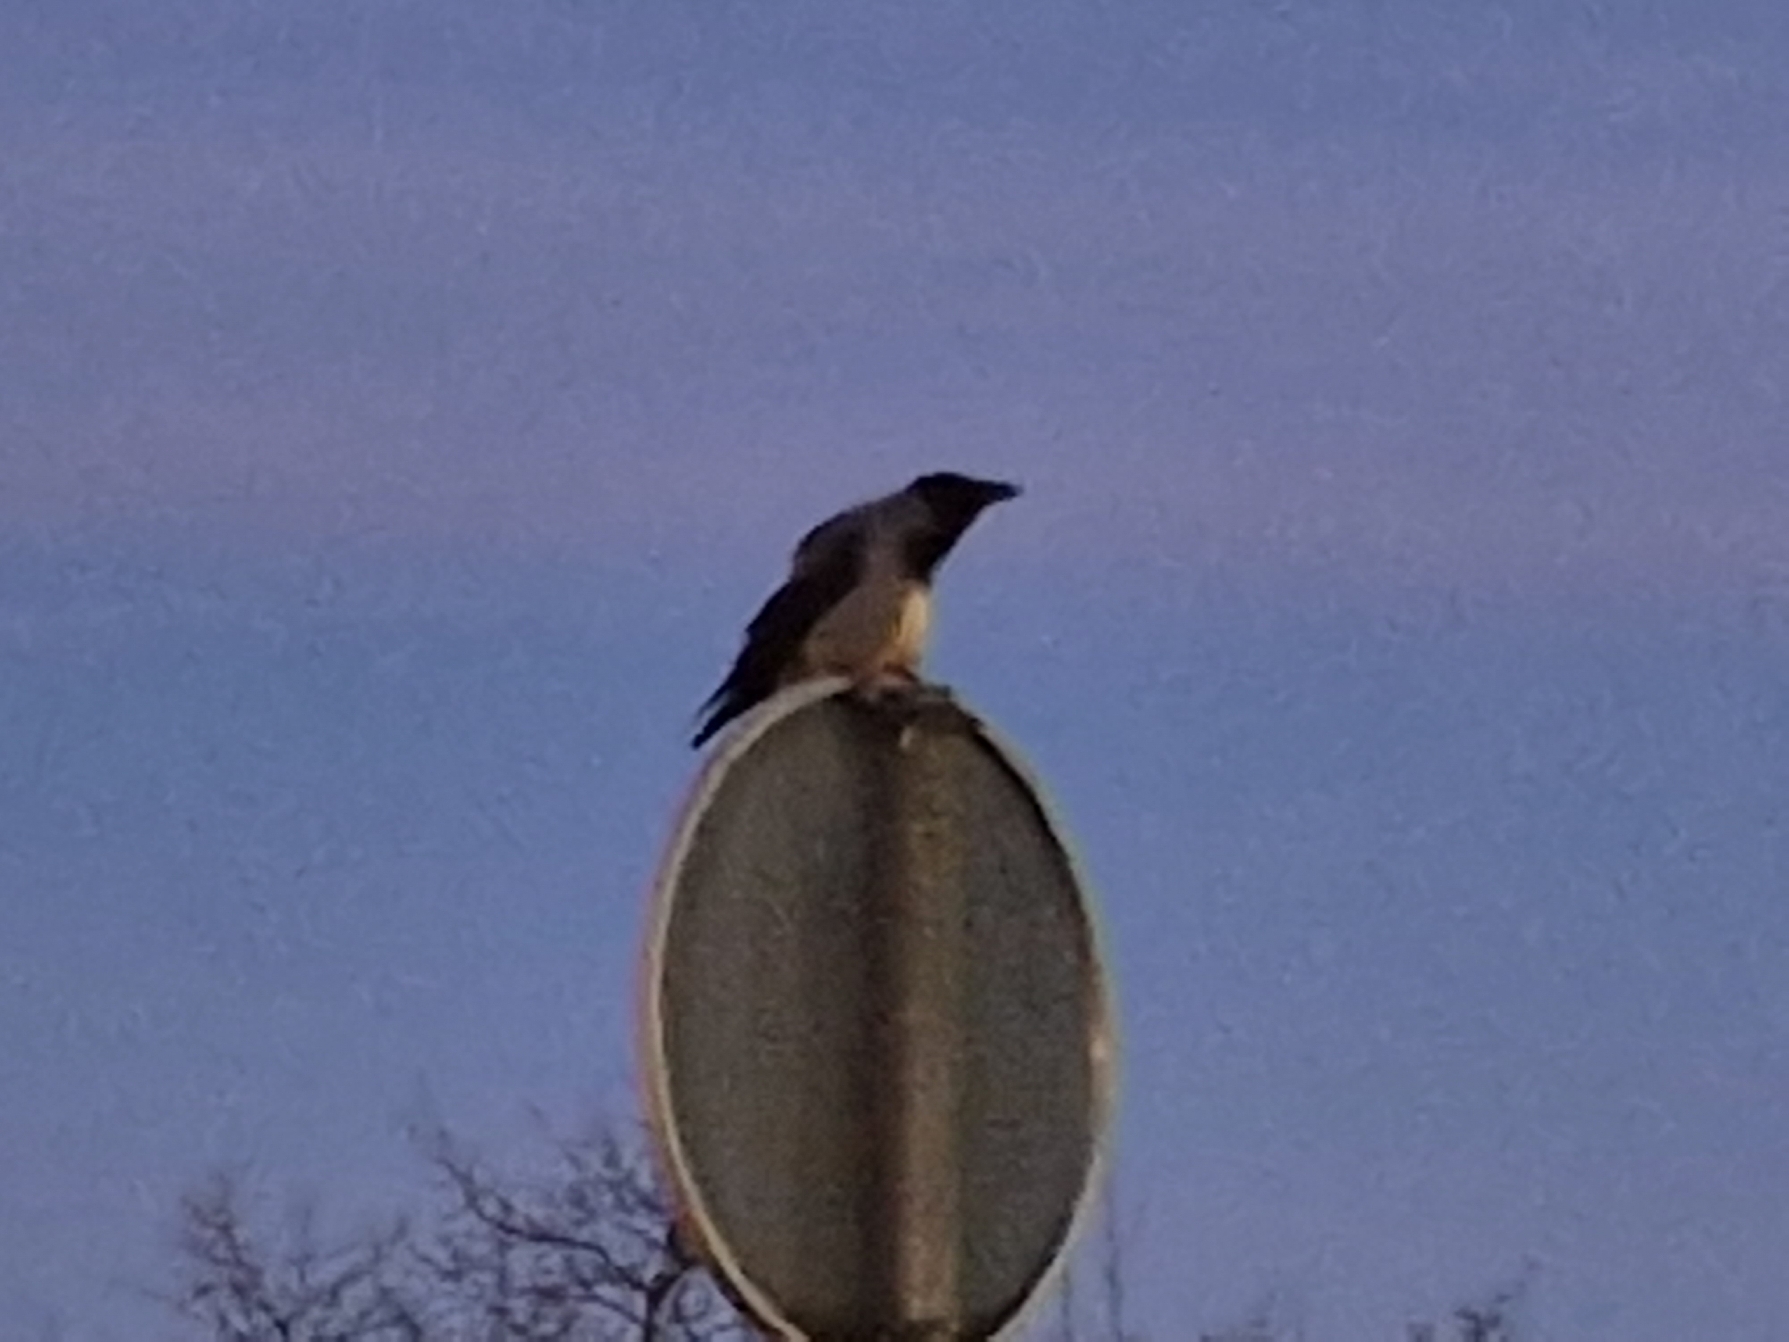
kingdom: Animalia
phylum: Chordata
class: Aves
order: Passeriformes
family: Corvidae
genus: Corvus
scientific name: Corvus cornix
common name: Gråkrage
